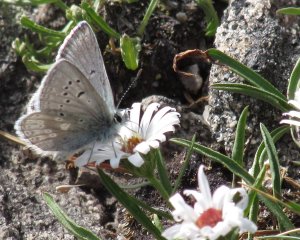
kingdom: Animalia
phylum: Arthropoda
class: Insecta
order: Lepidoptera
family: Lycaenidae
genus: Icaricia
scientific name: Icaricia icarioides
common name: Boisduval's Blue
